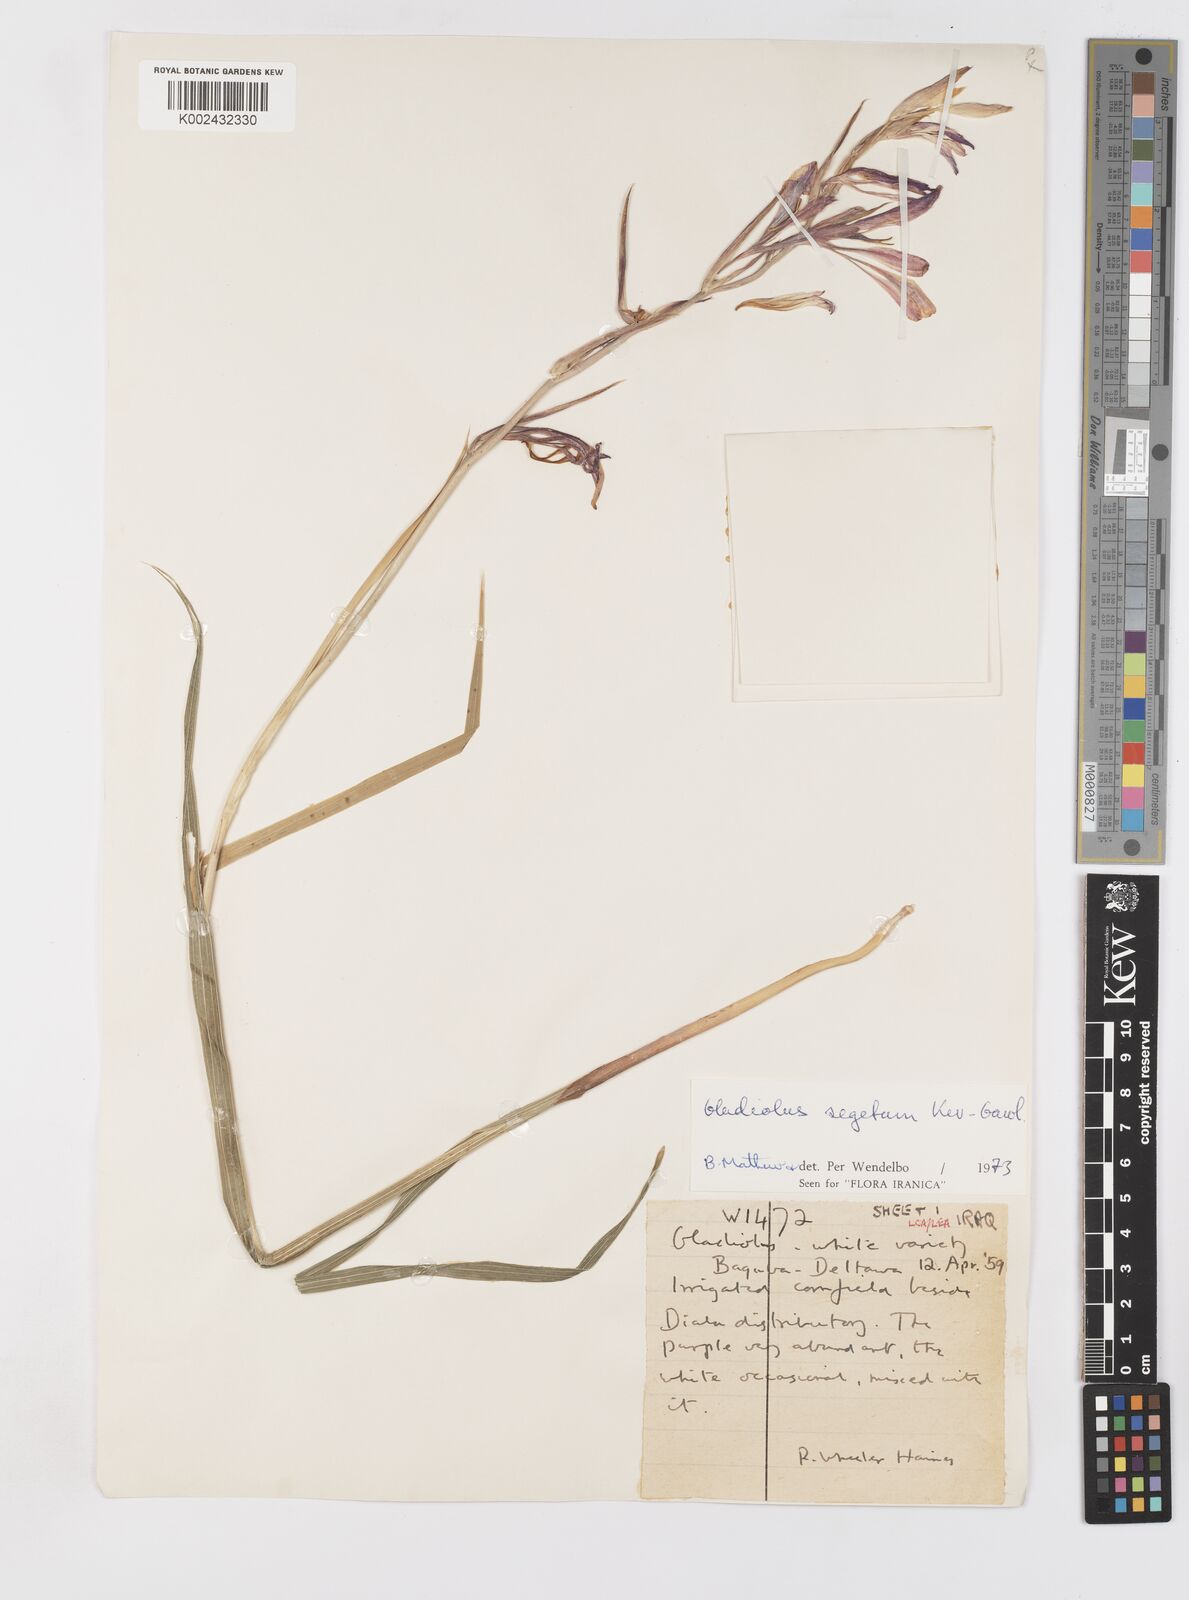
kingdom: Plantae
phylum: Tracheophyta
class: Liliopsida
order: Asparagales
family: Iridaceae
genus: Gladiolus
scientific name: Gladiolus italicus
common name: Field gladiolus
